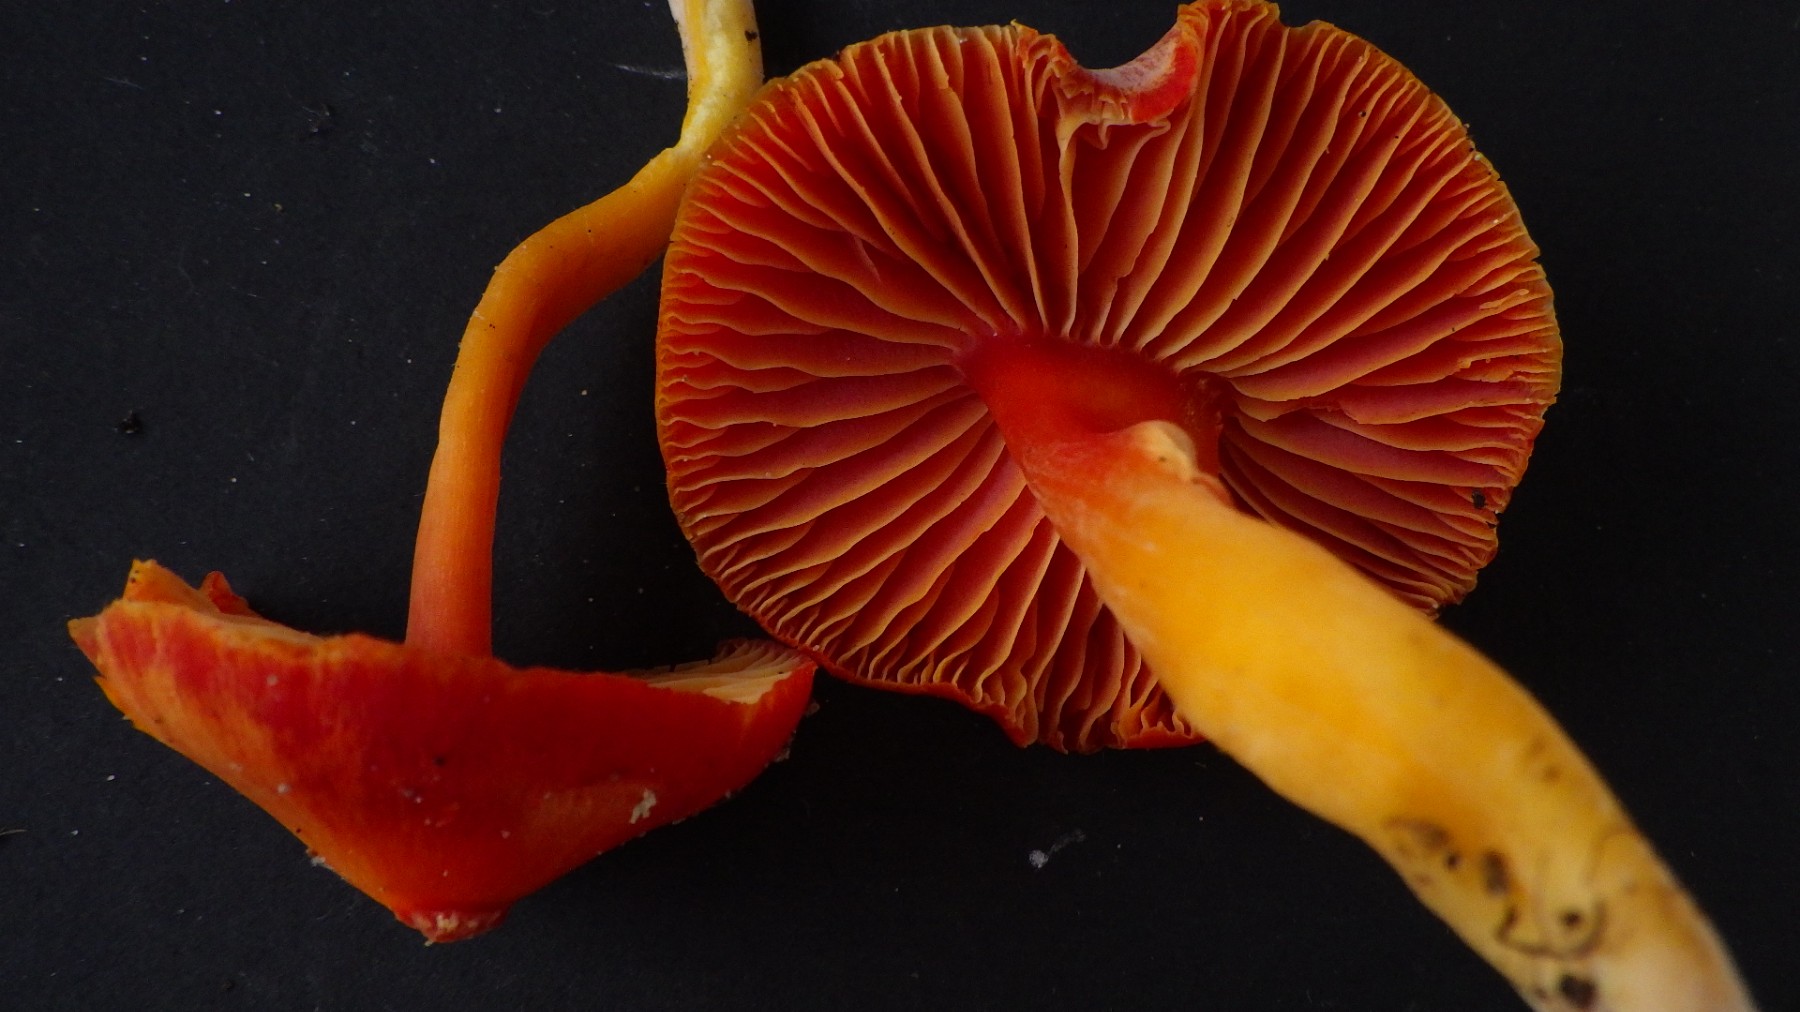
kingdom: Fungi
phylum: Basidiomycota
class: Agaricomycetes
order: Agaricales
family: Hygrophoraceae
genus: Hygrocybe
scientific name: Hygrocybe coccinea
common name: cinnober-vokshat
